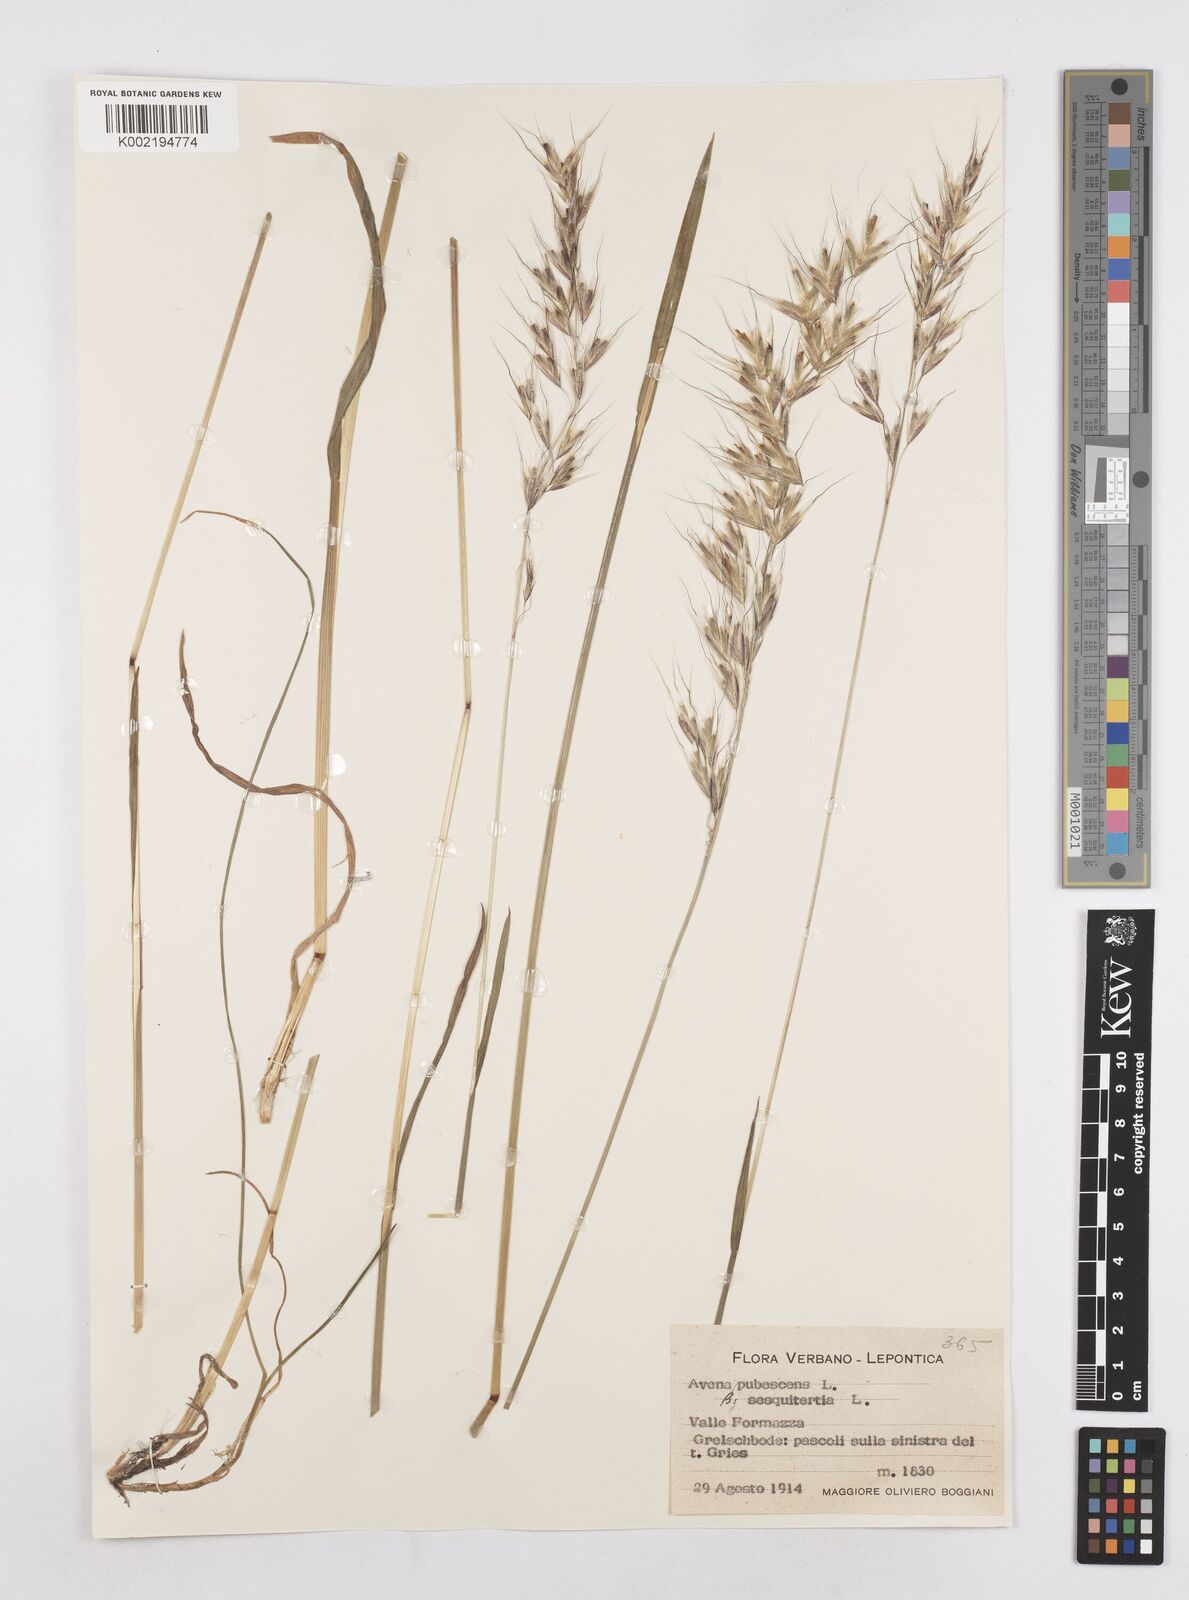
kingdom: Plantae
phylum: Tracheophyta
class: Liliopsida
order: Poales
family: Poaceae
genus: Avenula
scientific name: Avenula pubescens
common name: Downy alpine oatgrass
